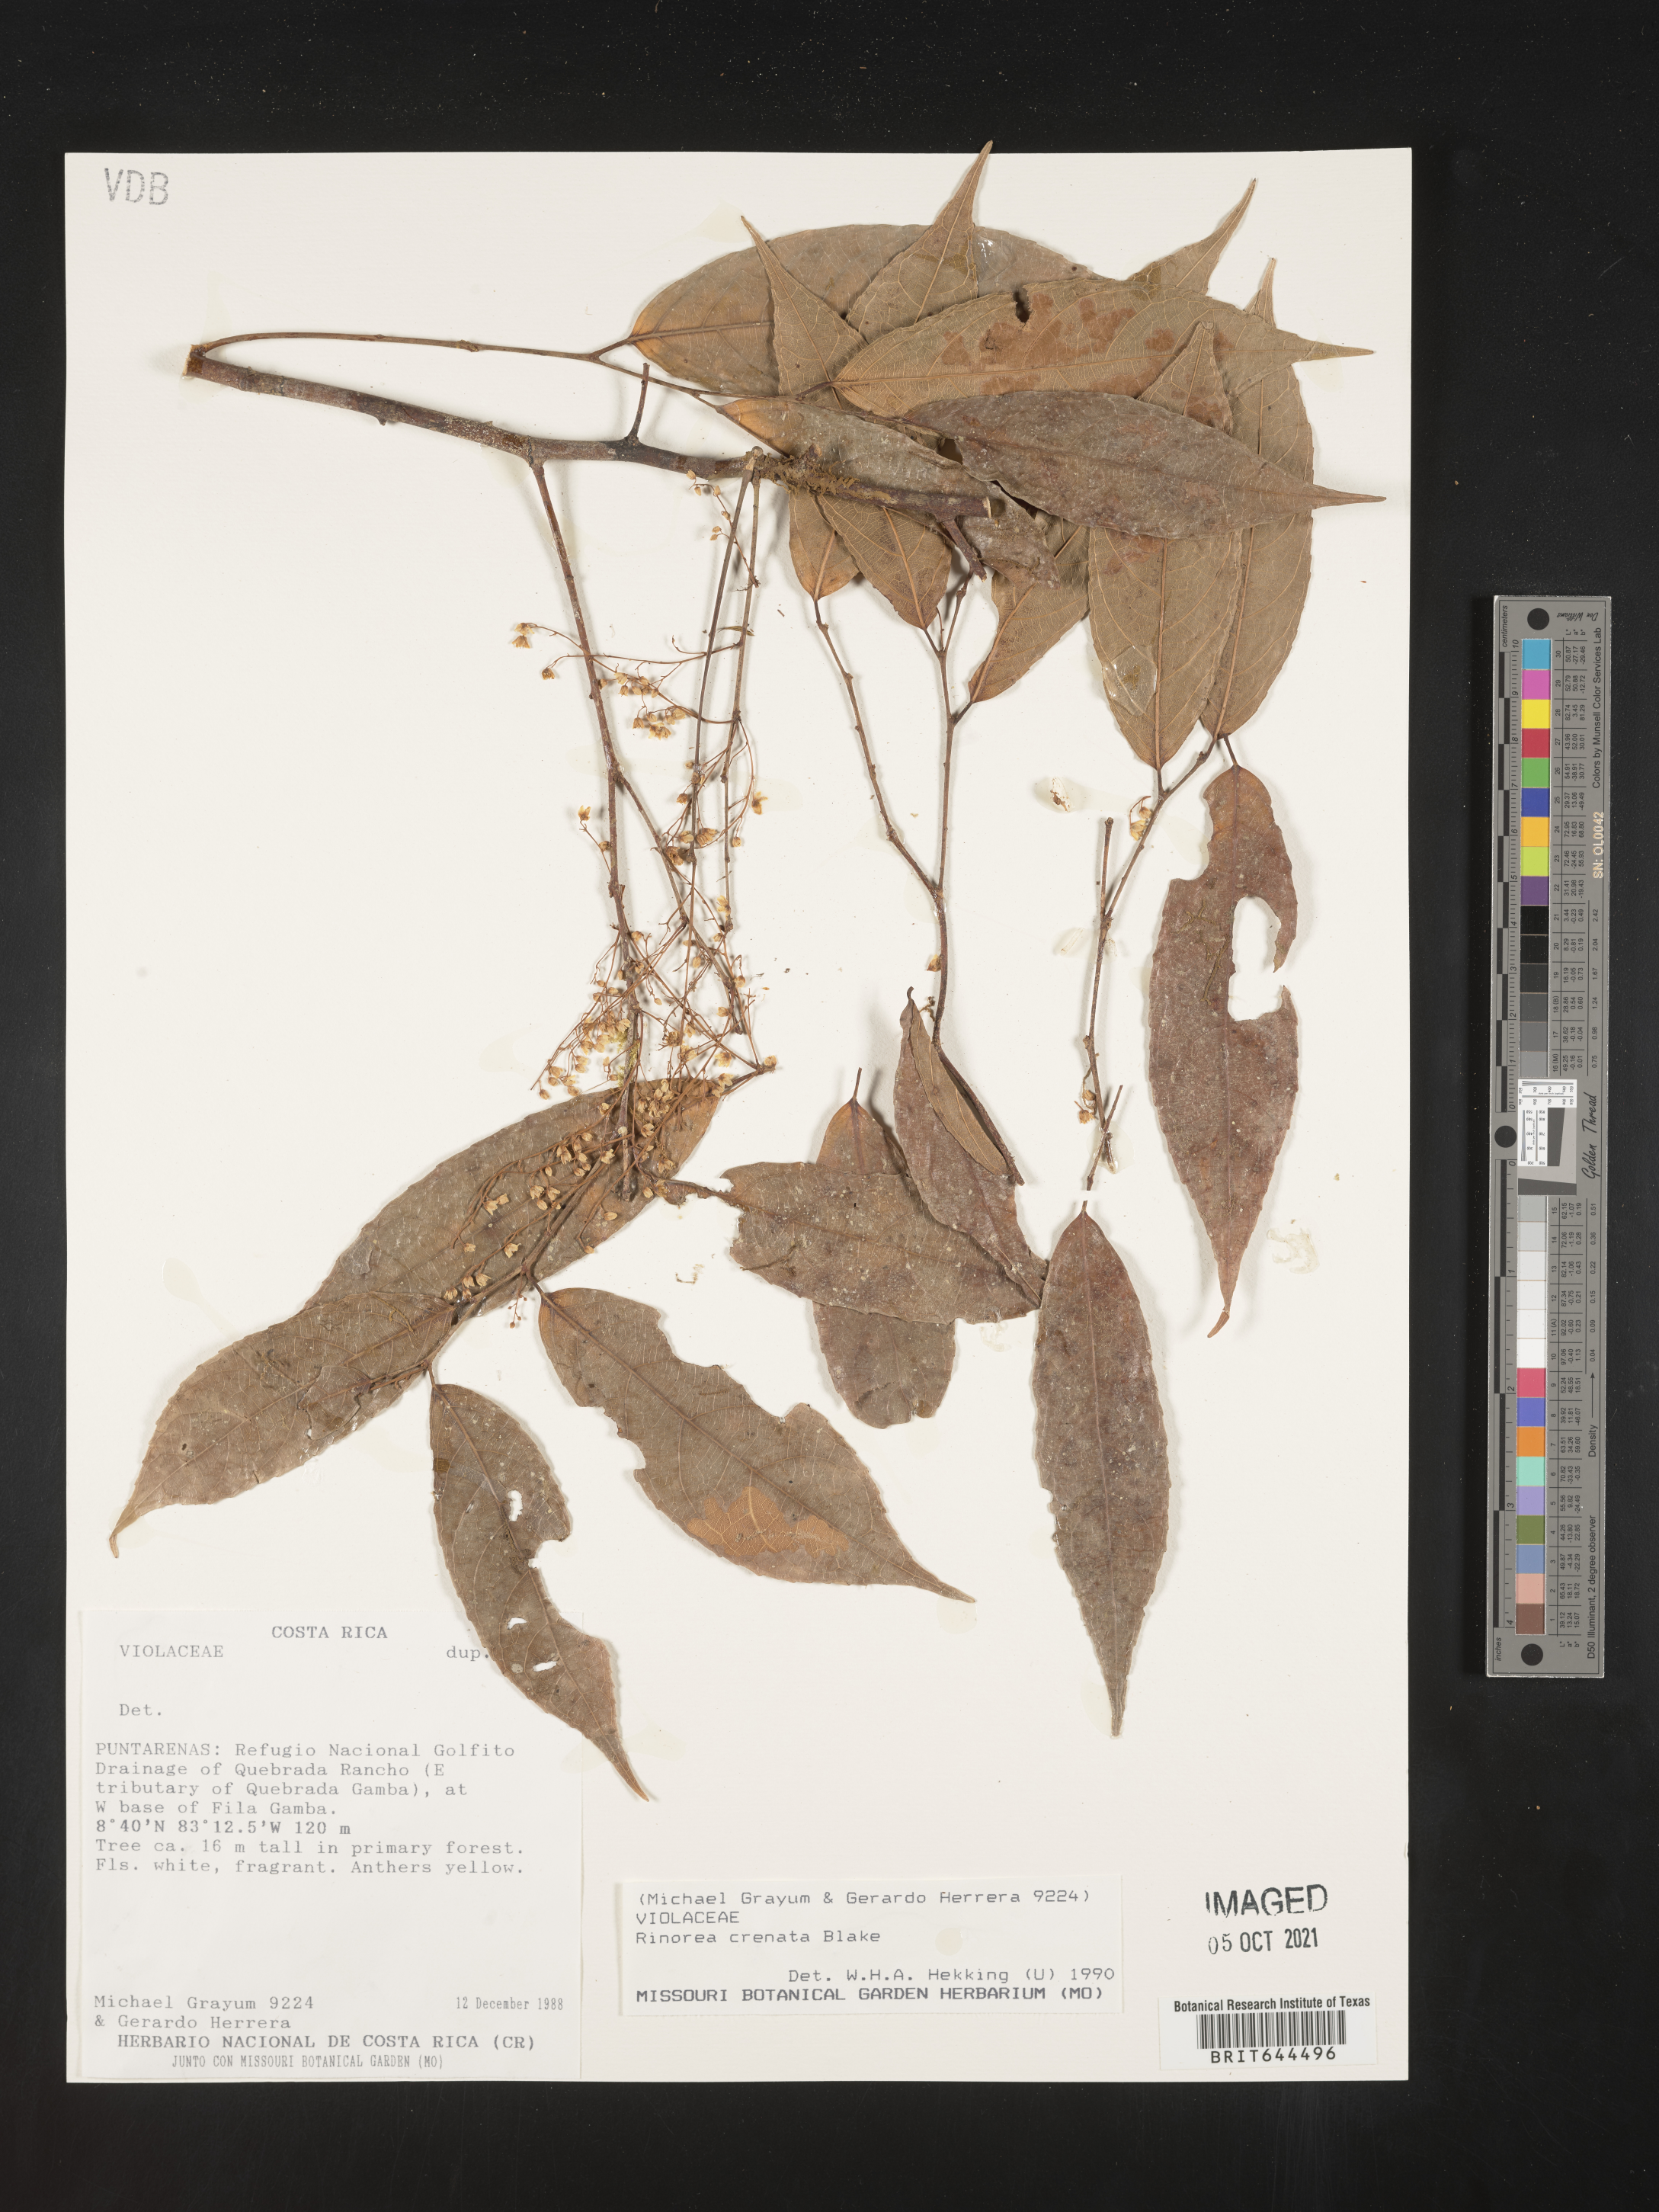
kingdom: Plantae
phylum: Tracheophyta
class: Magnoliopsida
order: Malpighiales
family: Violaceae
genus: Rinorea
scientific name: Rinorea
